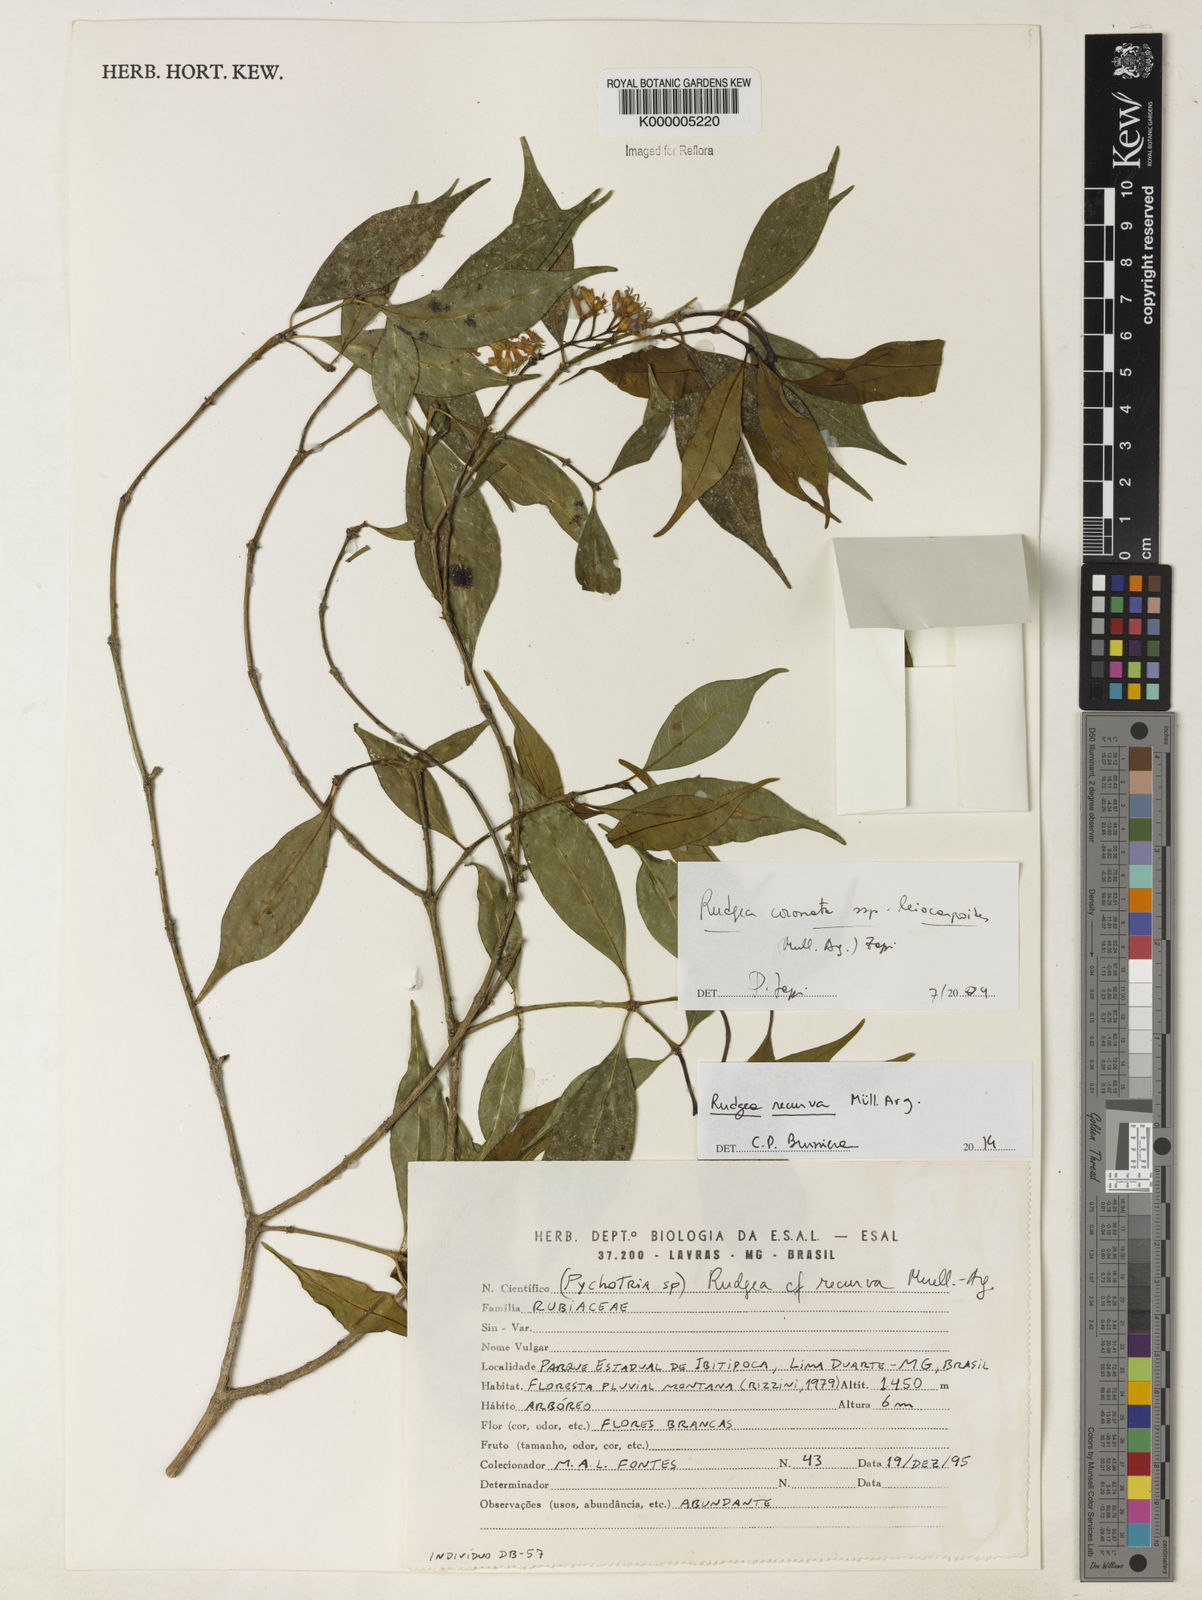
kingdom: Plantae
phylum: Tracheophyta
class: Magnoliopsida
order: Gentianales
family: Rubiaceae
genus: Rudgea
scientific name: Rudgea
